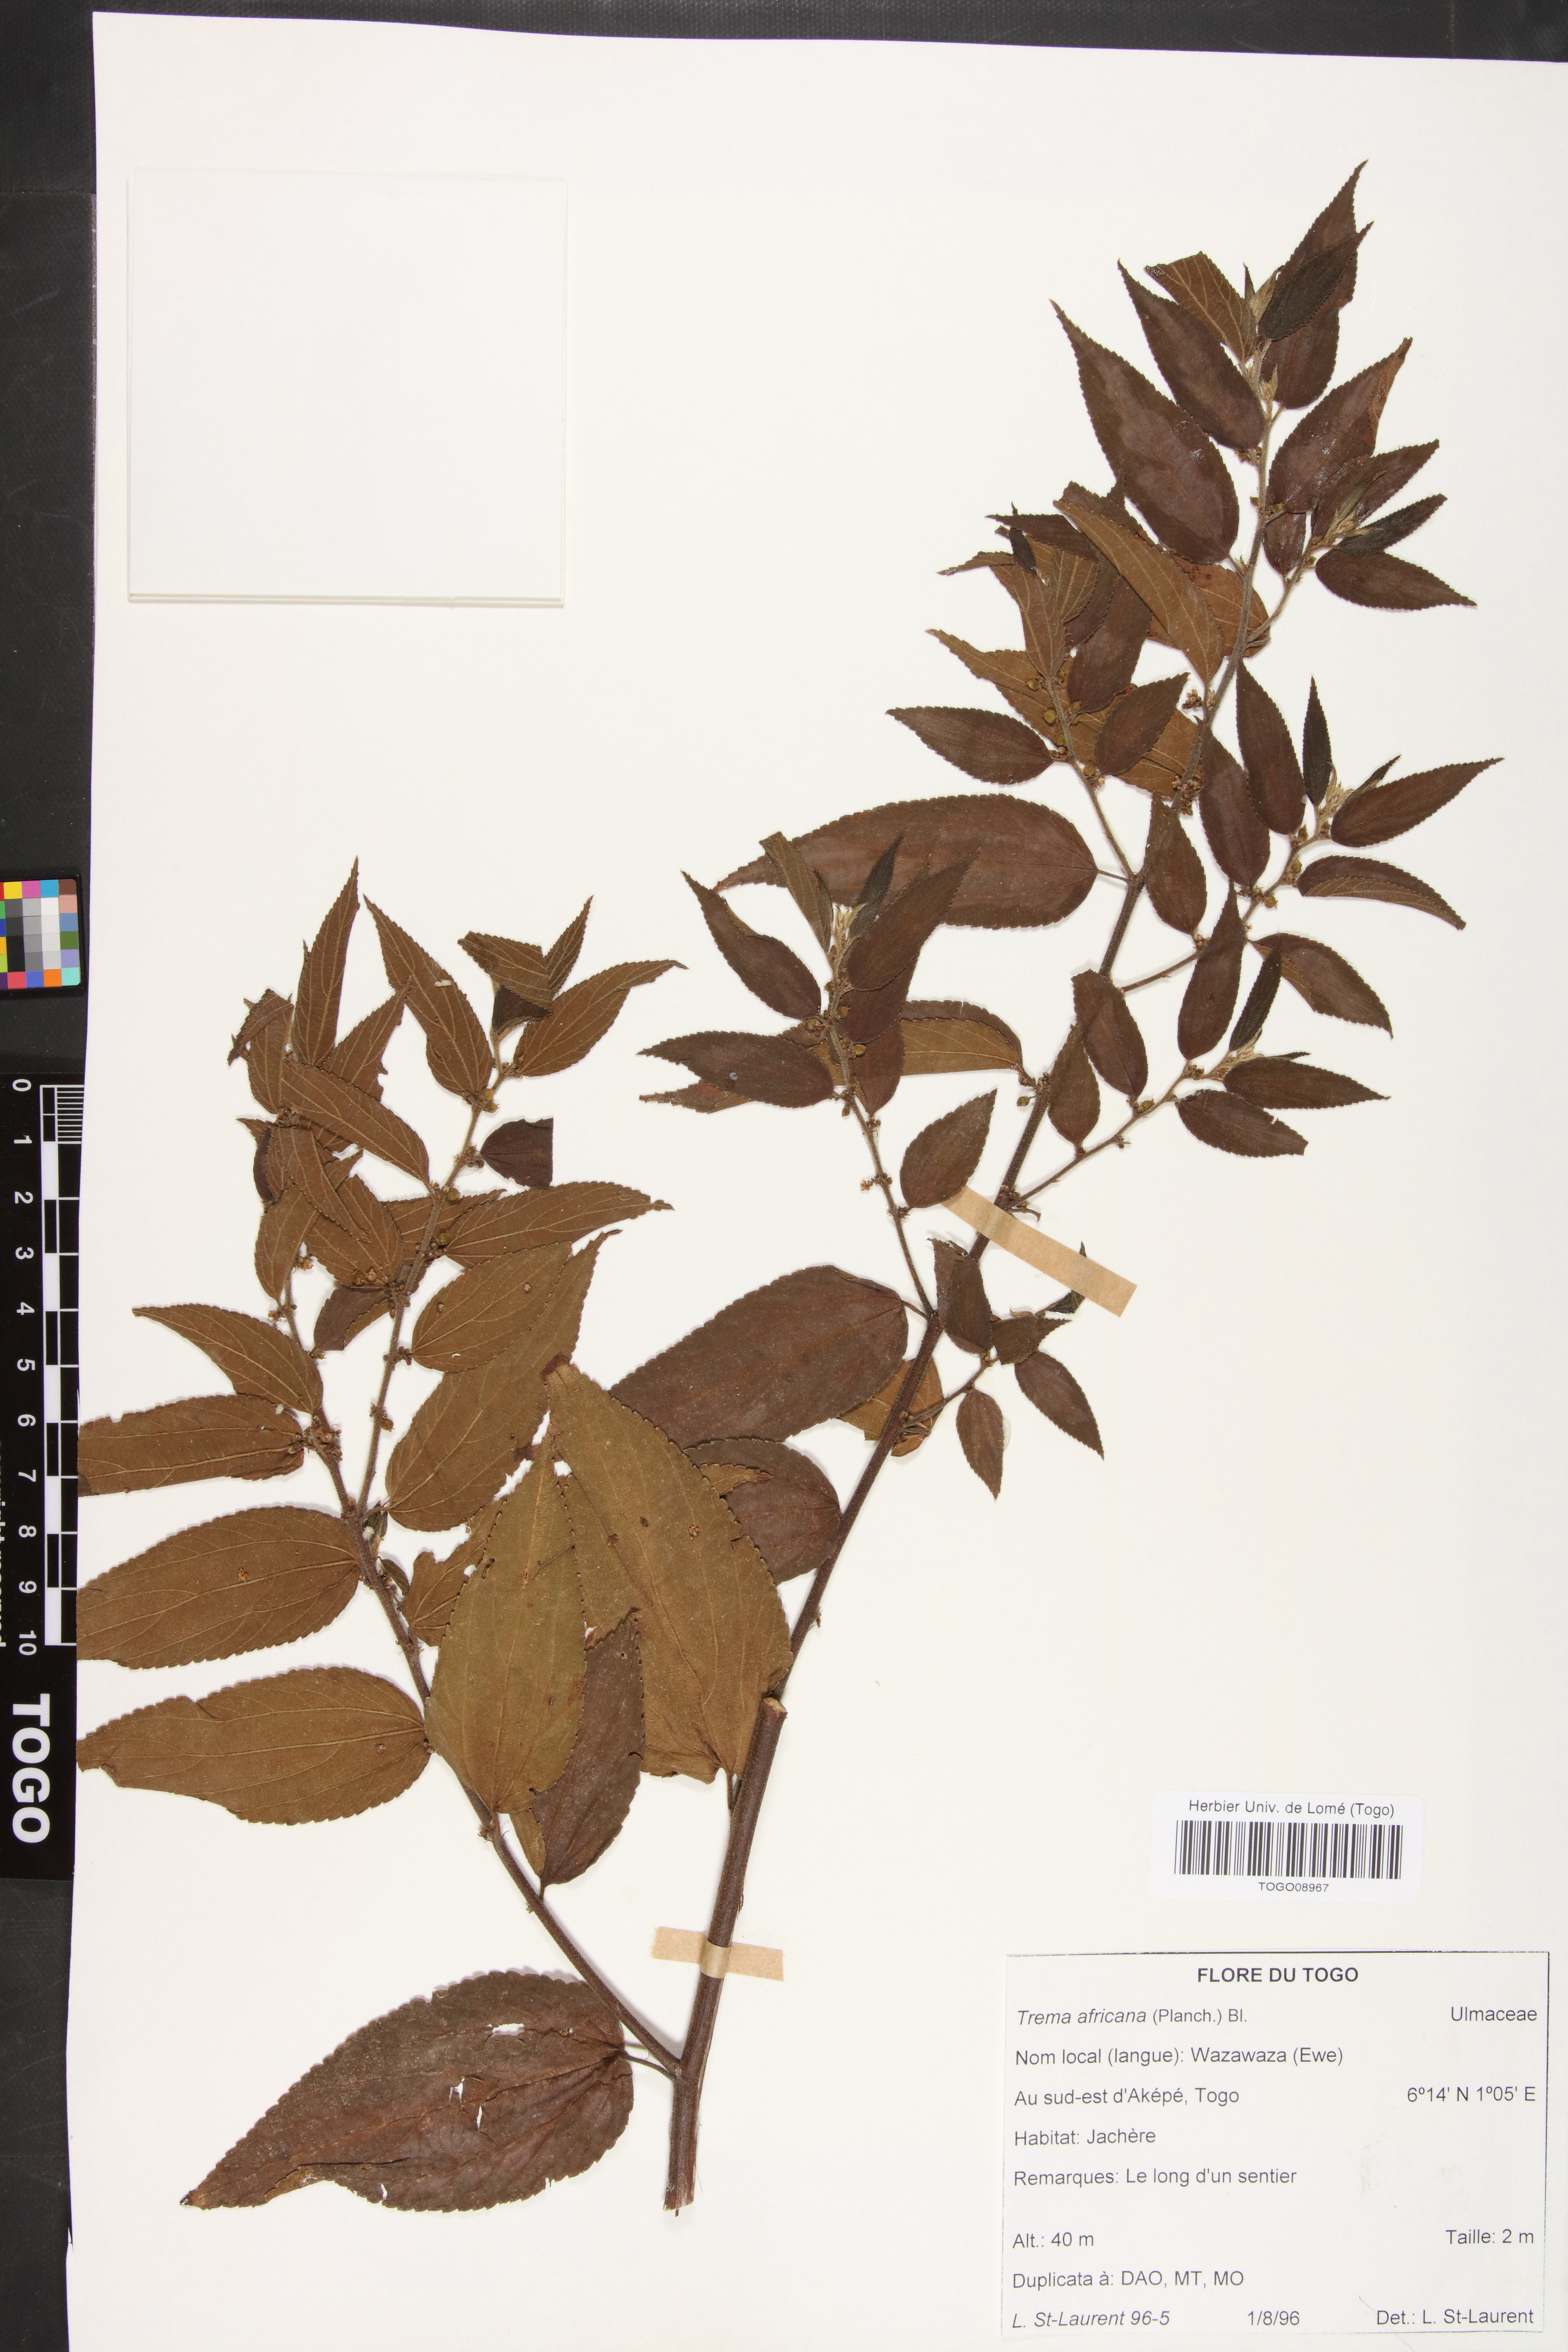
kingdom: Plantae
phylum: Tracheophyta
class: Magnoliopsida
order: Rosales
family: Cannabaceae
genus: Trema
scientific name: Trema orientale
